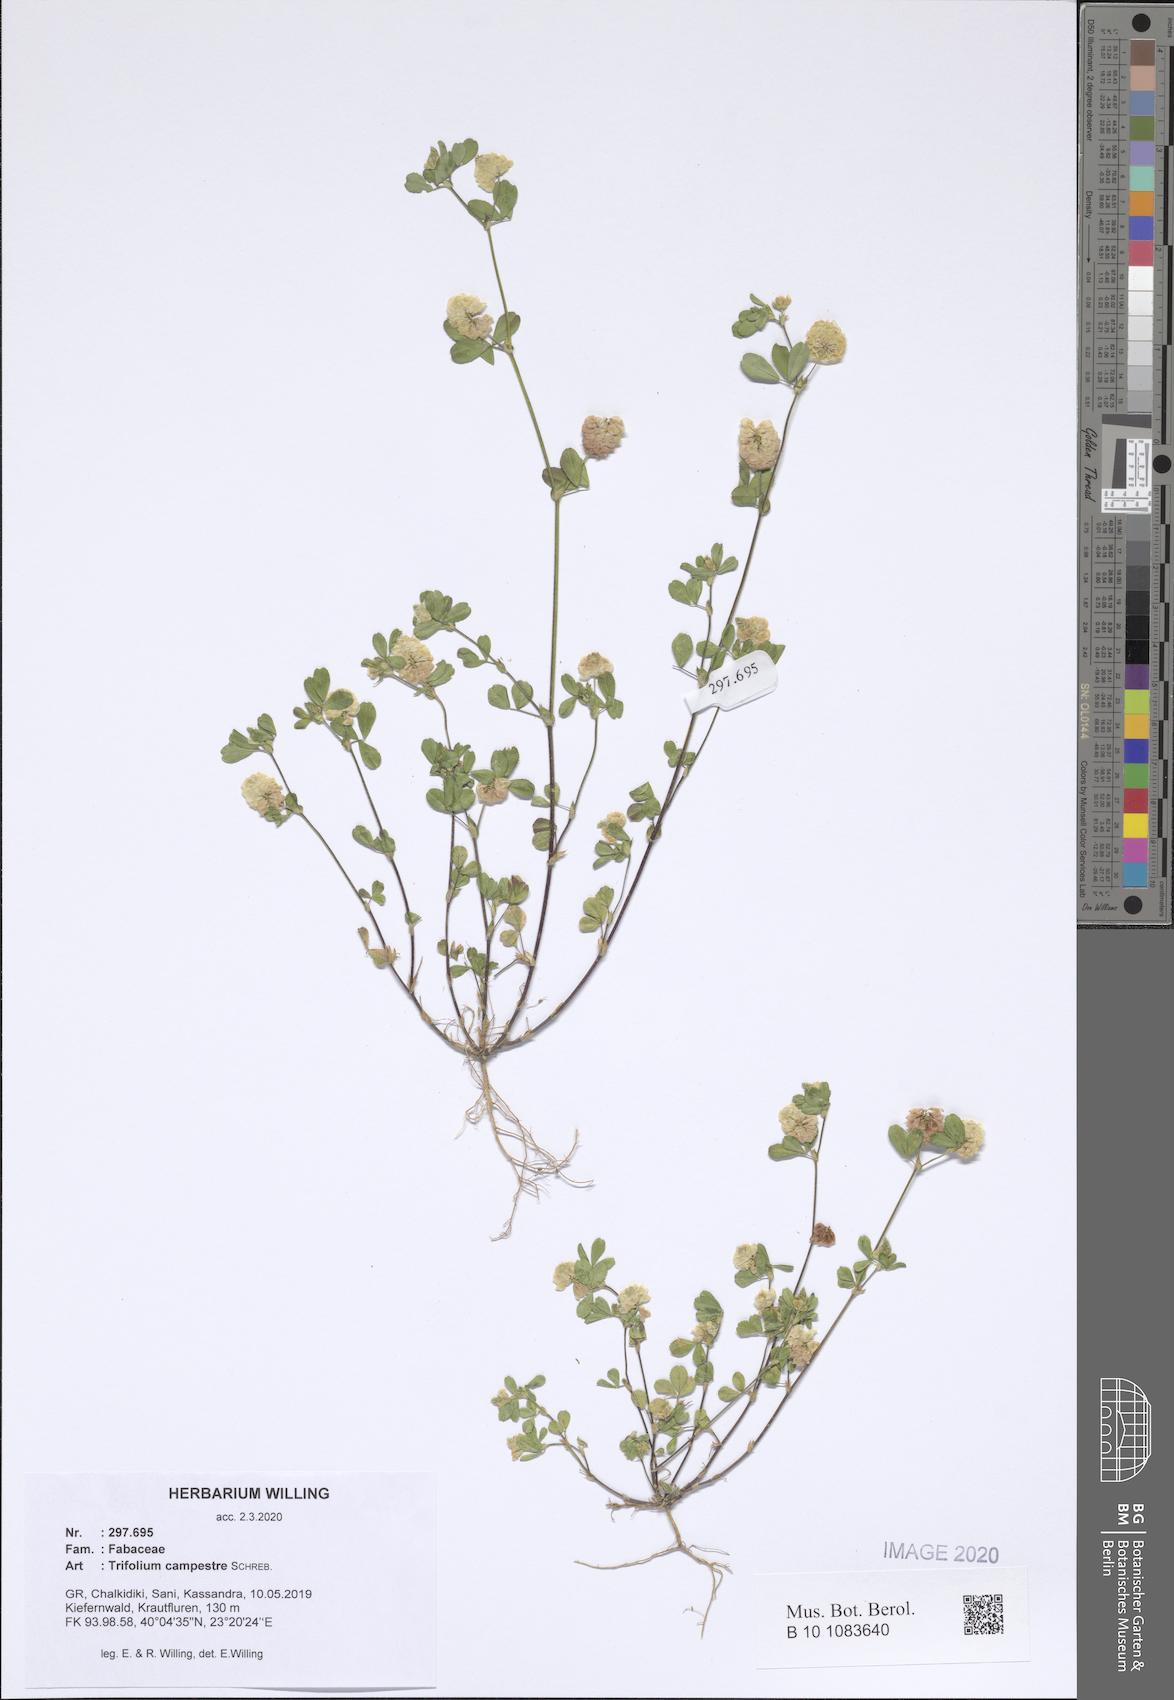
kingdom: Plantae
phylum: Tracheophyta
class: Magnoliopsida
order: Fabales
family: Fabaceae
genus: Trifolium
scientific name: Trifolium campestre
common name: Field clover
